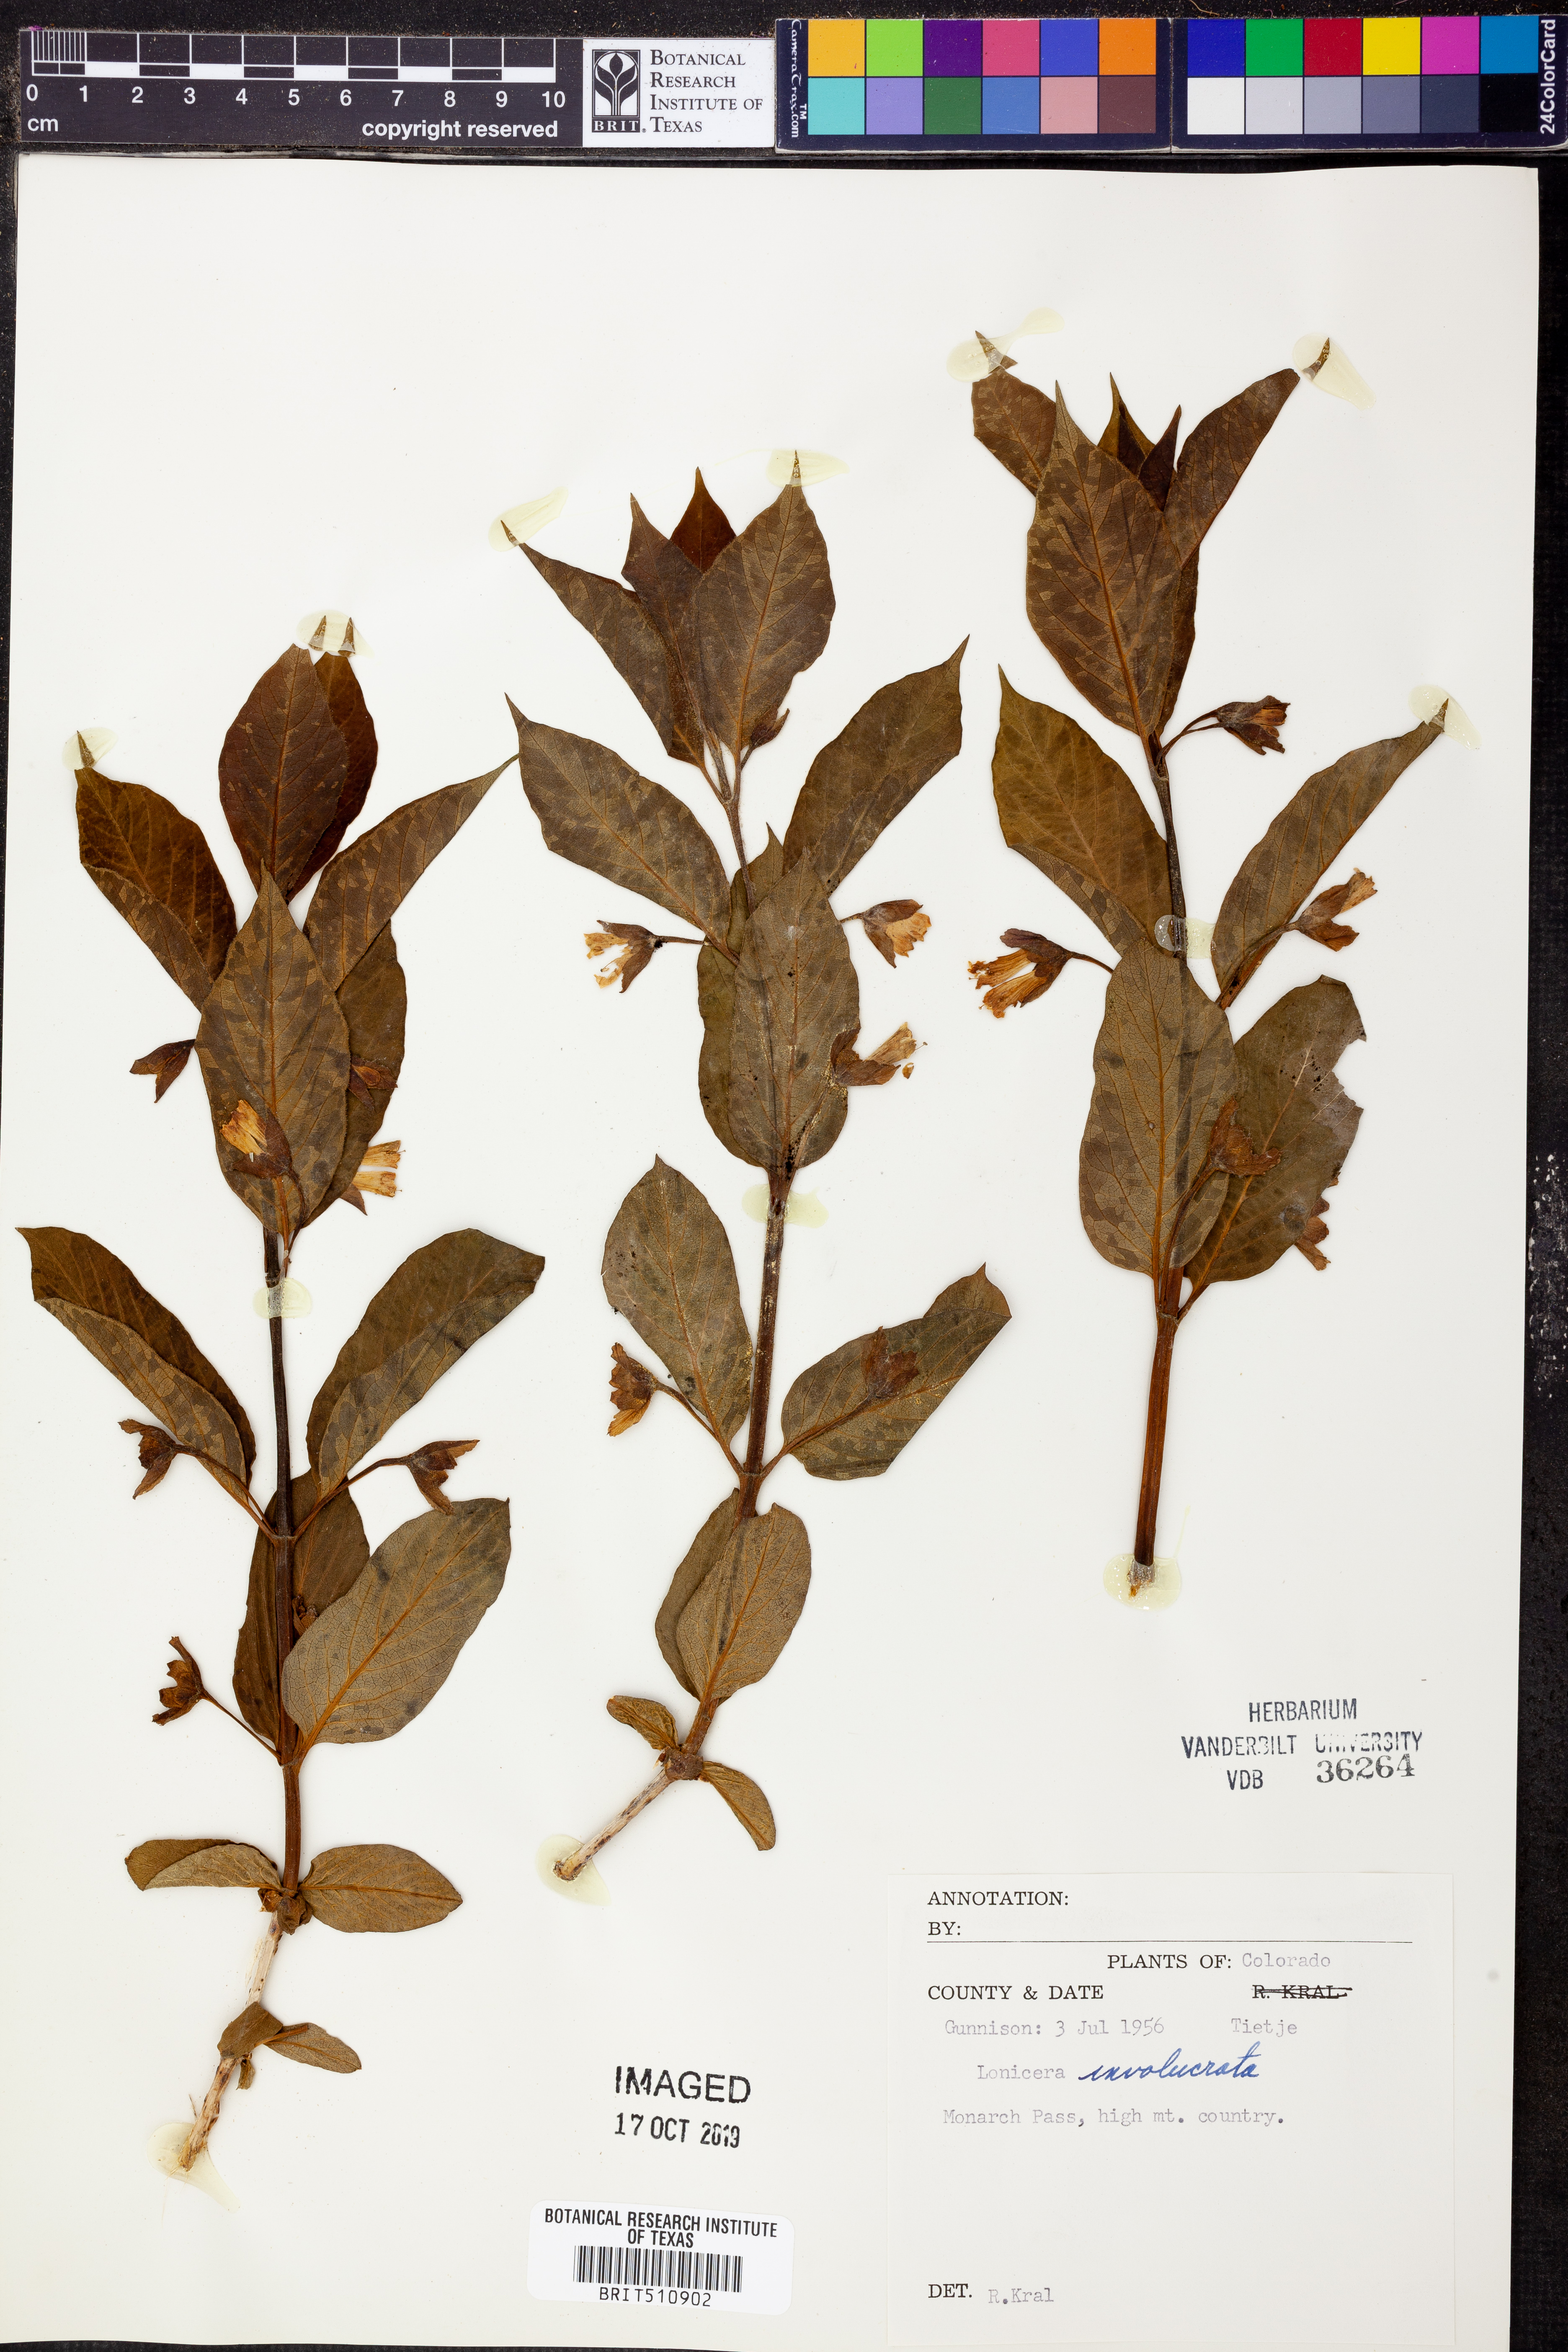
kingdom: Plantae
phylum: Tracheophyta
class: Magnoliopsida
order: Dipsacales
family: Caprifoliaceae
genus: Lonicera
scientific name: Lonicera involucrata
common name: Californian honeysuckle
